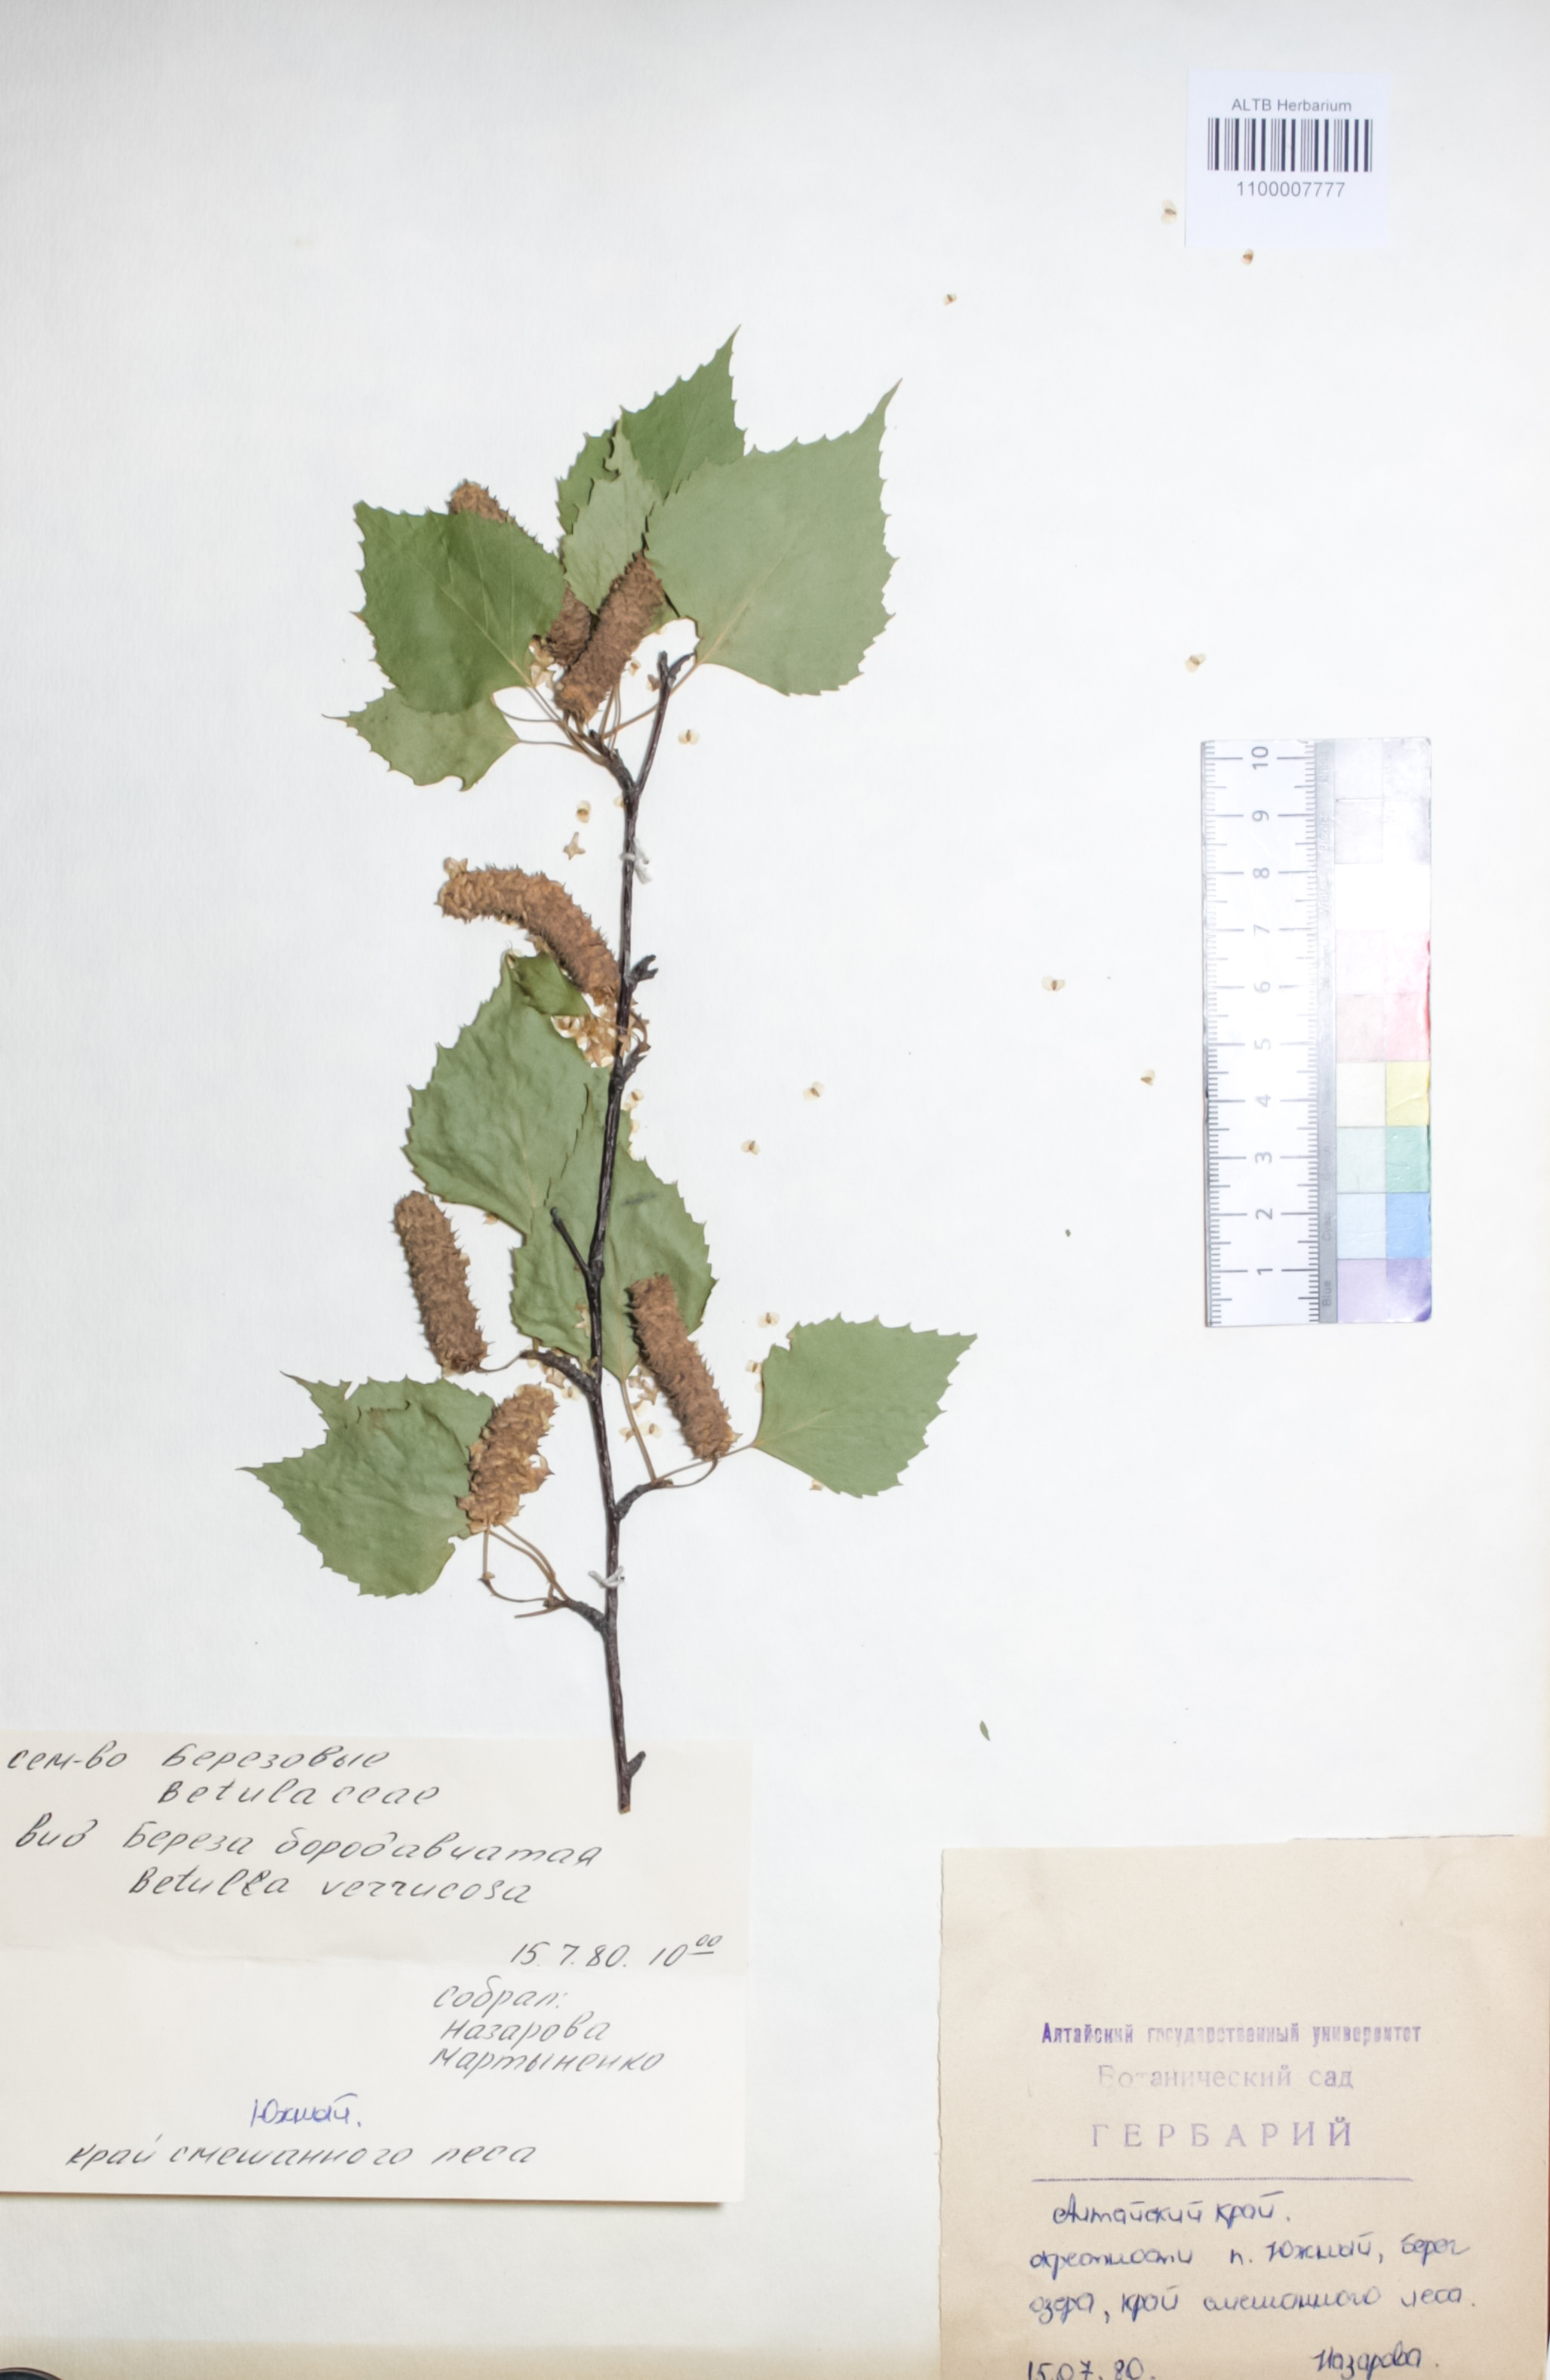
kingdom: Plantae
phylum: Tracheophyta
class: Magnoliopsida
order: Fagales
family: Betulaceae
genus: Betula
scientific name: Betula pendula
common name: Silver birch
